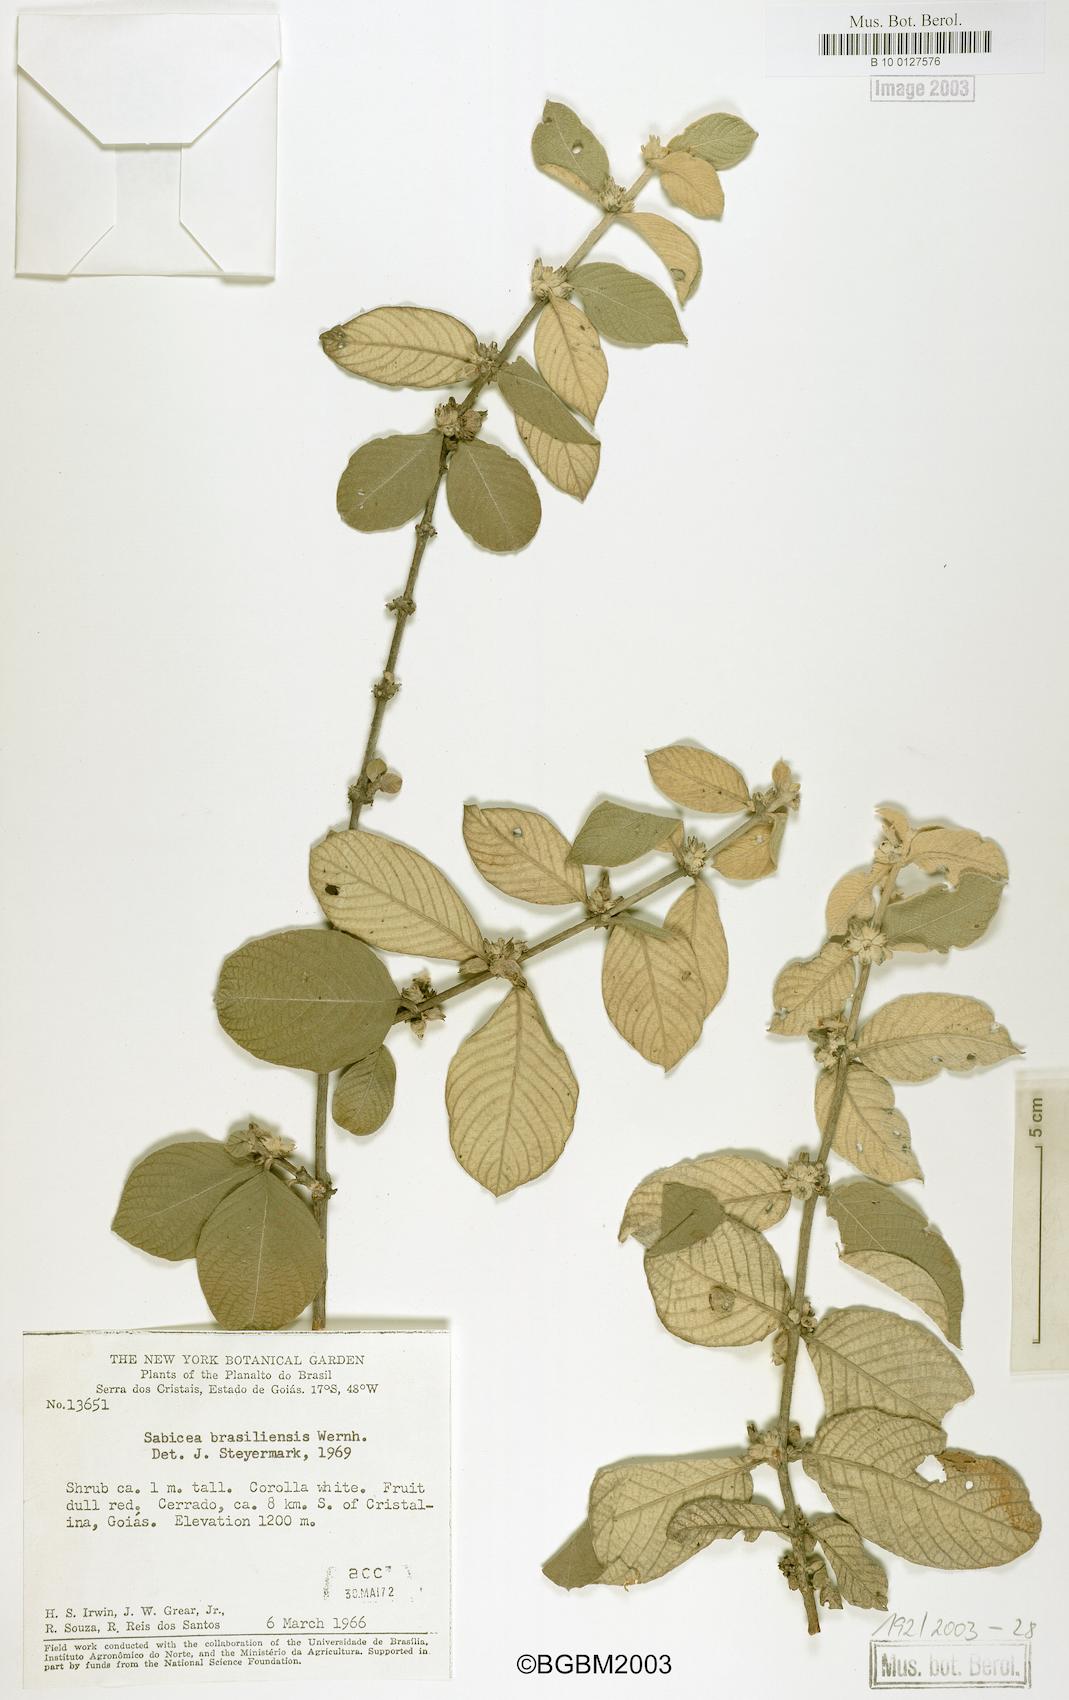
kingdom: Plantae
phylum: Tracheophyta
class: Magnoliopsida
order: Gentianales
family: Rubiaceae
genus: Sabicea
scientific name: Sabicea brasiliensis
